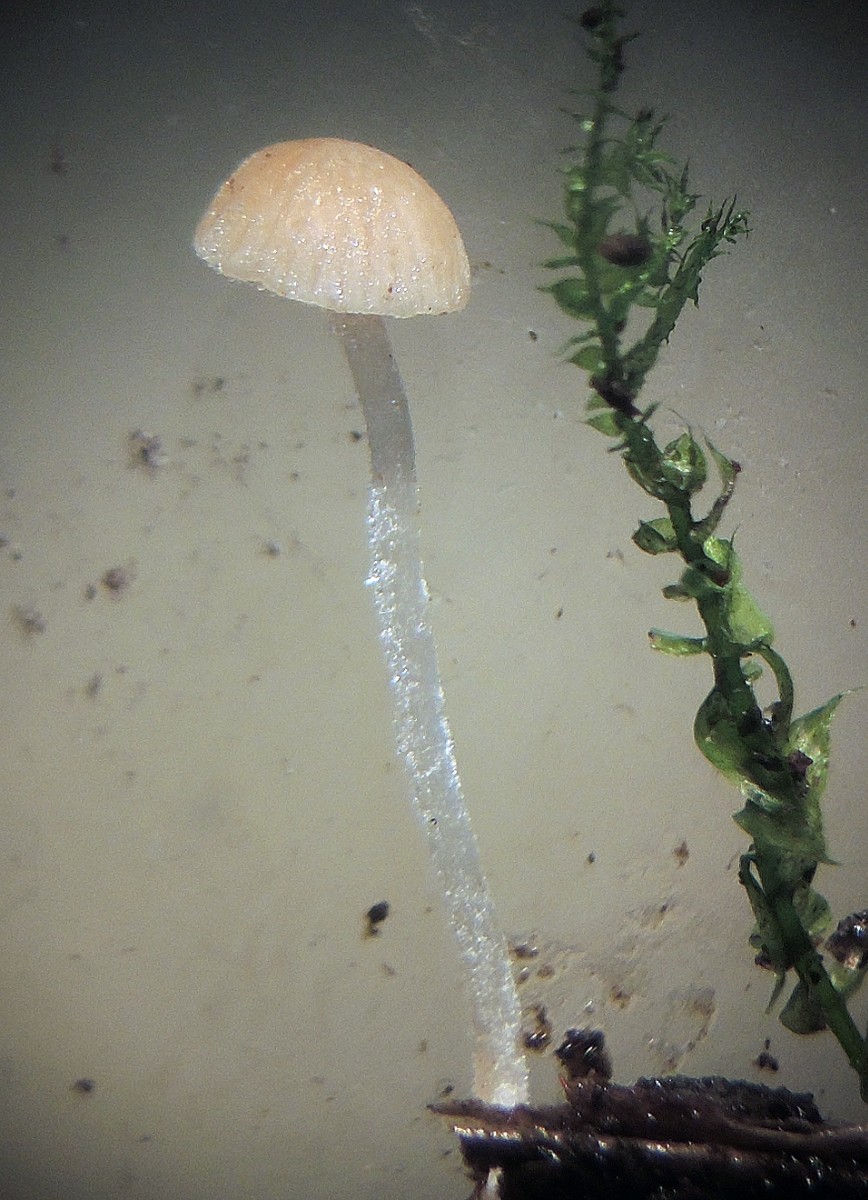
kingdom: Fungi
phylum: Basidiomycota
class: Agaricomycetes
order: Agaricales
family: Bolbitiaceae
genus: Conocybe
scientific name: Conocybe mairei
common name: spinkel dansehat
